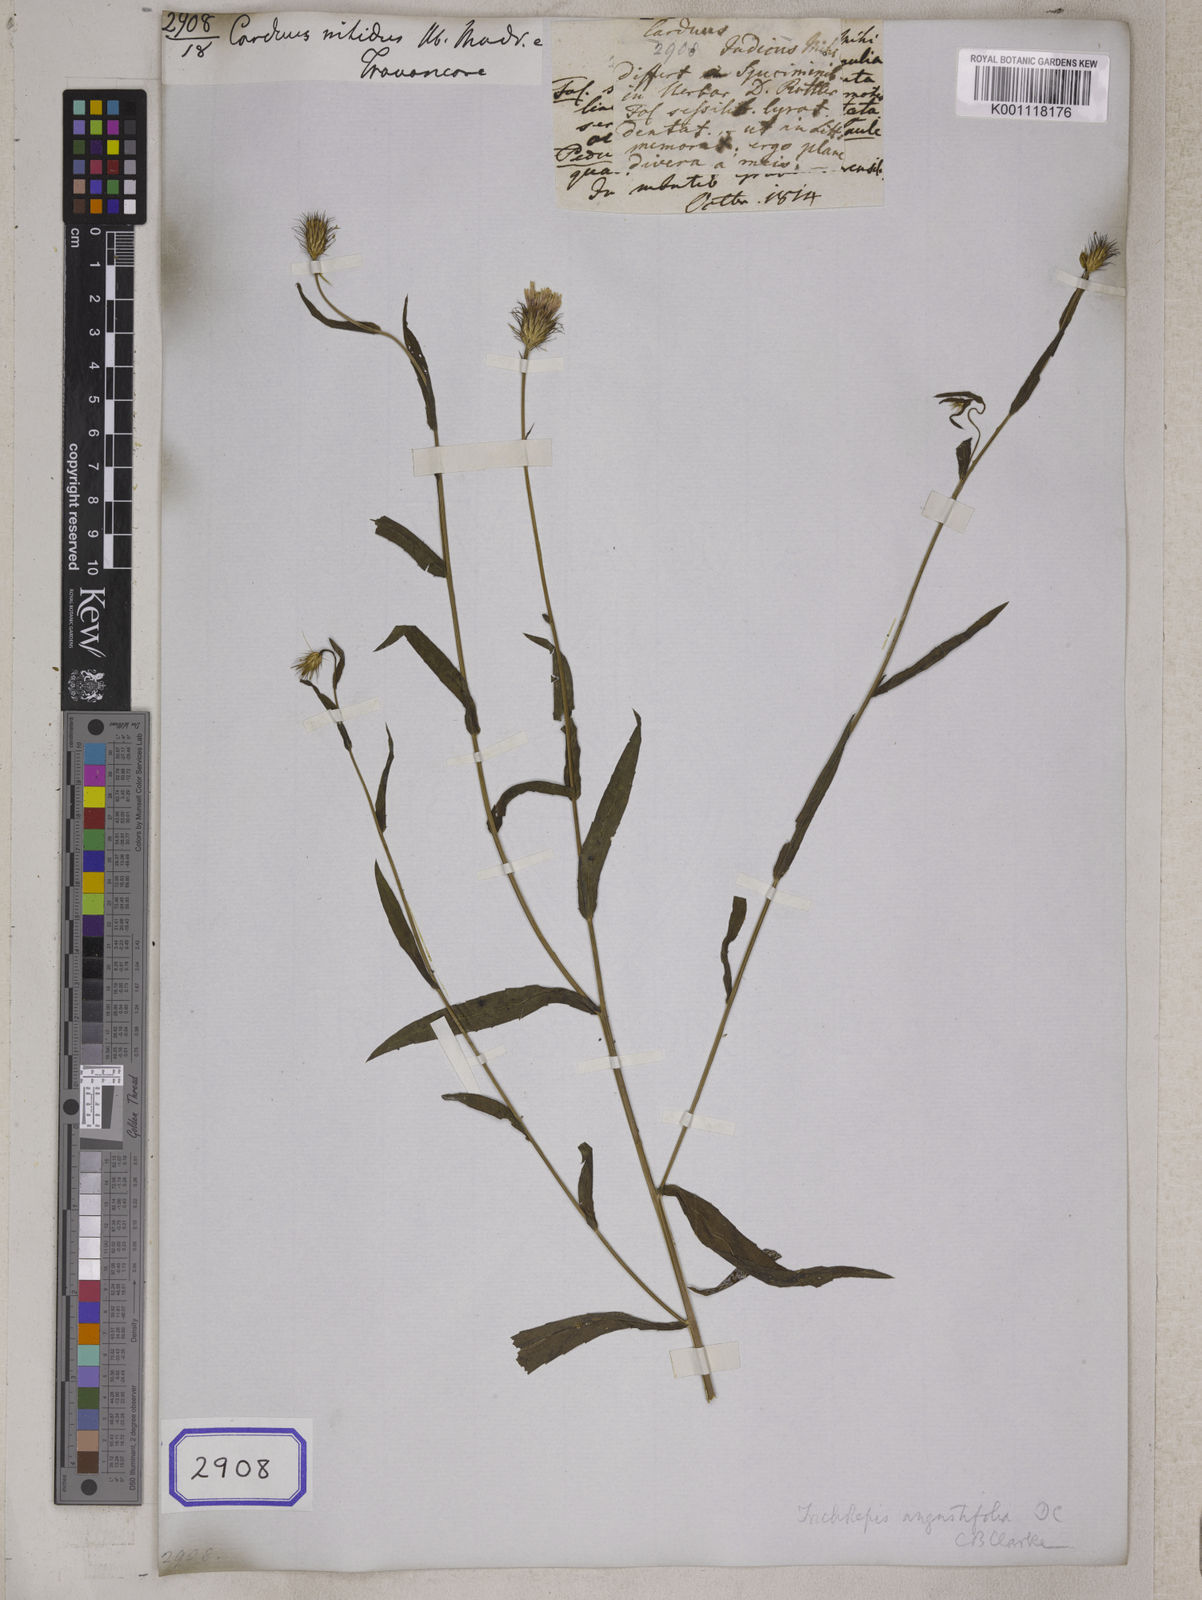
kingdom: Plantae
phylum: Tracheophyta
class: Magnoliopsida
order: Asterales
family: Asteraceae
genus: Tricholepis
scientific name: Tricholepis glaberrima
